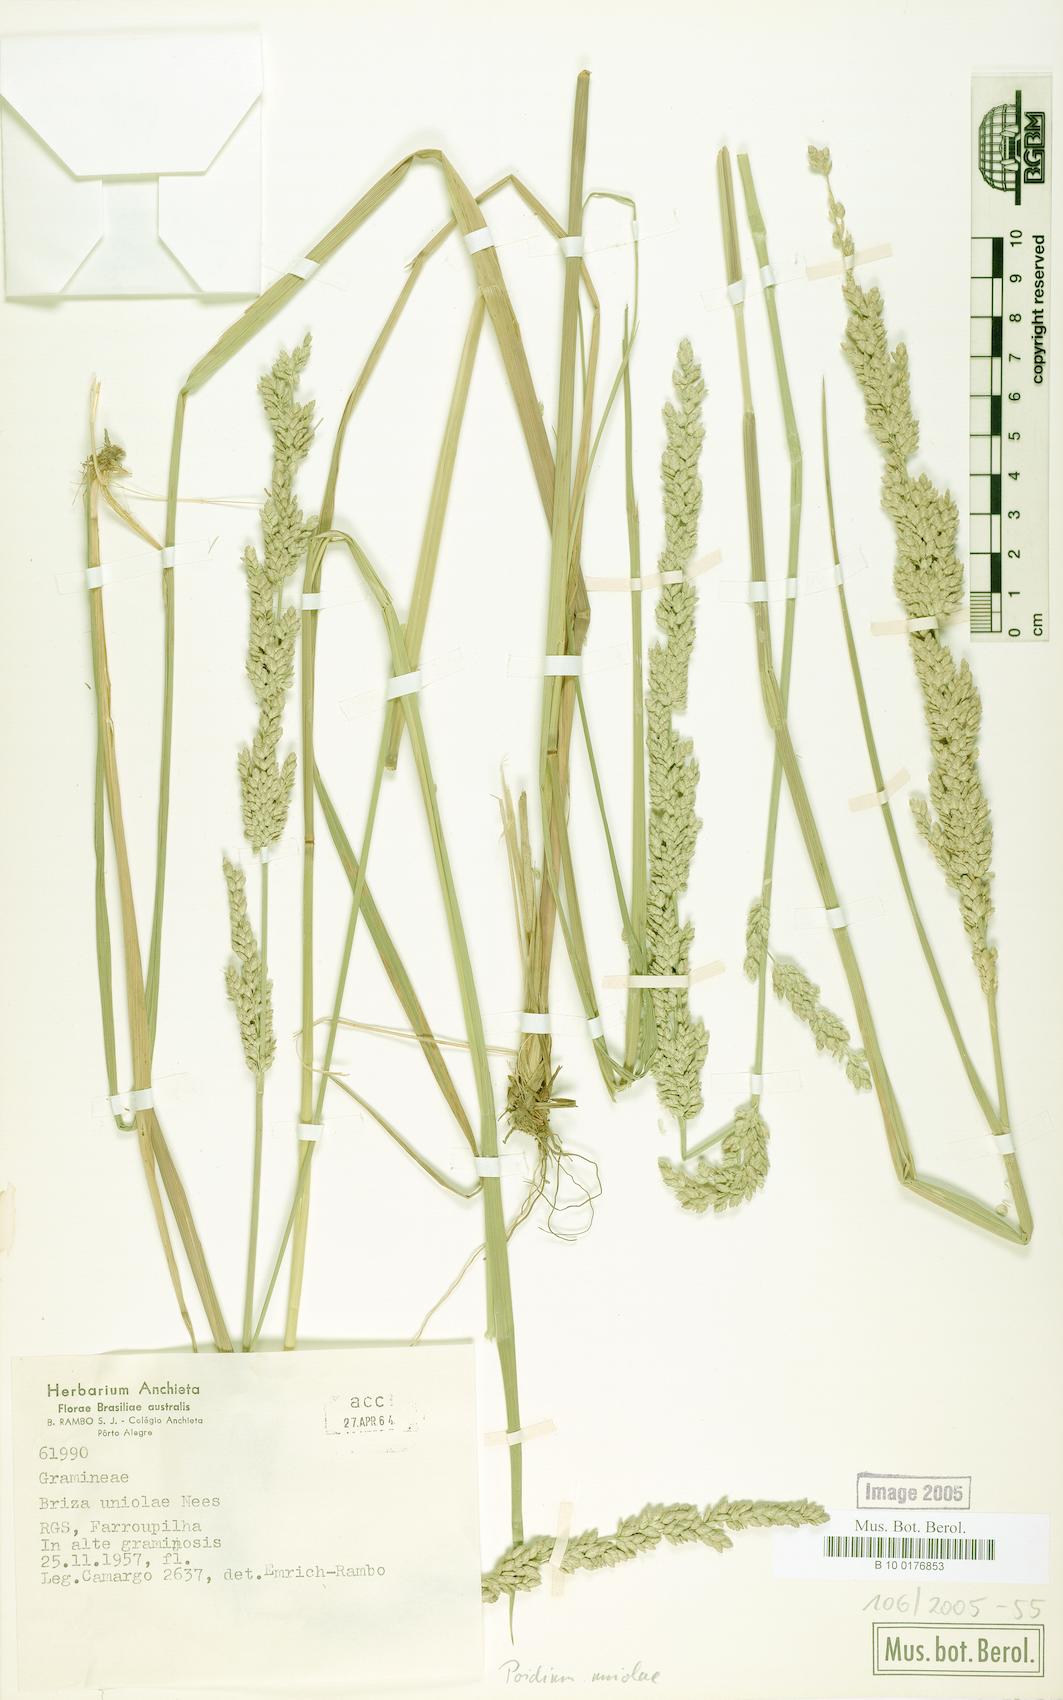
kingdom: Plantae
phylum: Tracheophyta
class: Liliopsida
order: Poales
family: Poaceae
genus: Poidium
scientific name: Poidium uniolae
